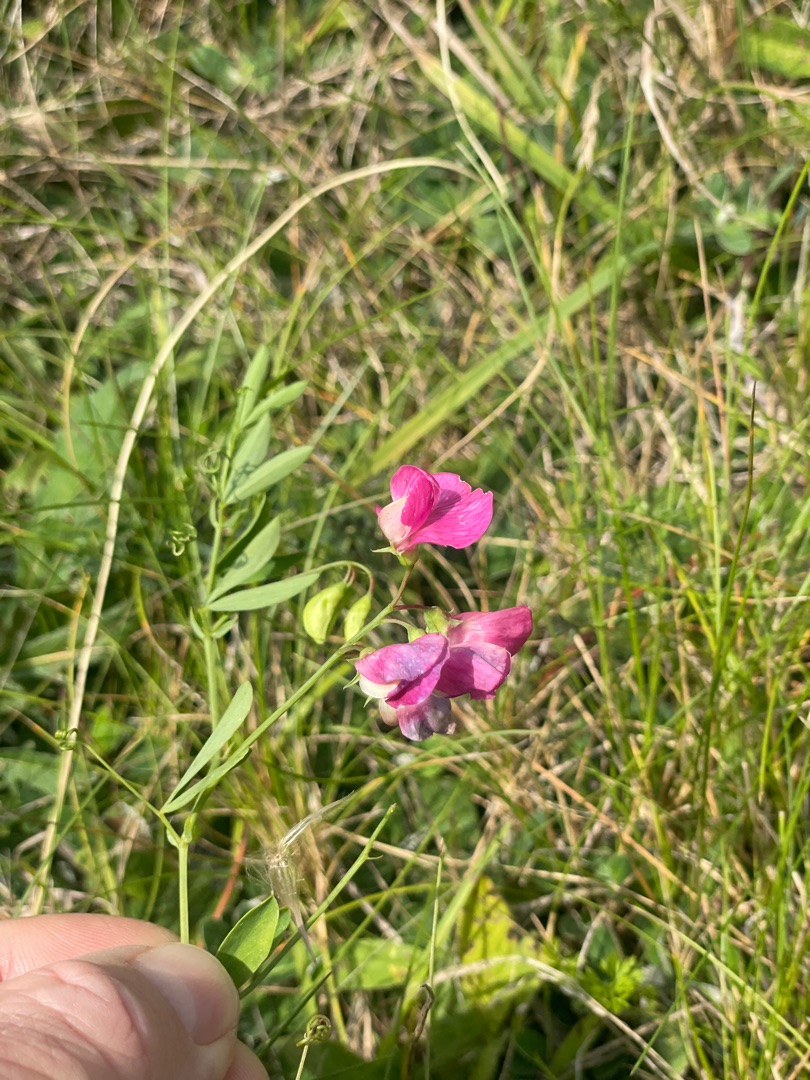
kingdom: Plantae
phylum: Tracheophyta
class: Magnoliopsida
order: Fabales
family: Fabaceae
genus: Lathyrus
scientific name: Lathyrus tuberosus
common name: Knold-fladbælg
